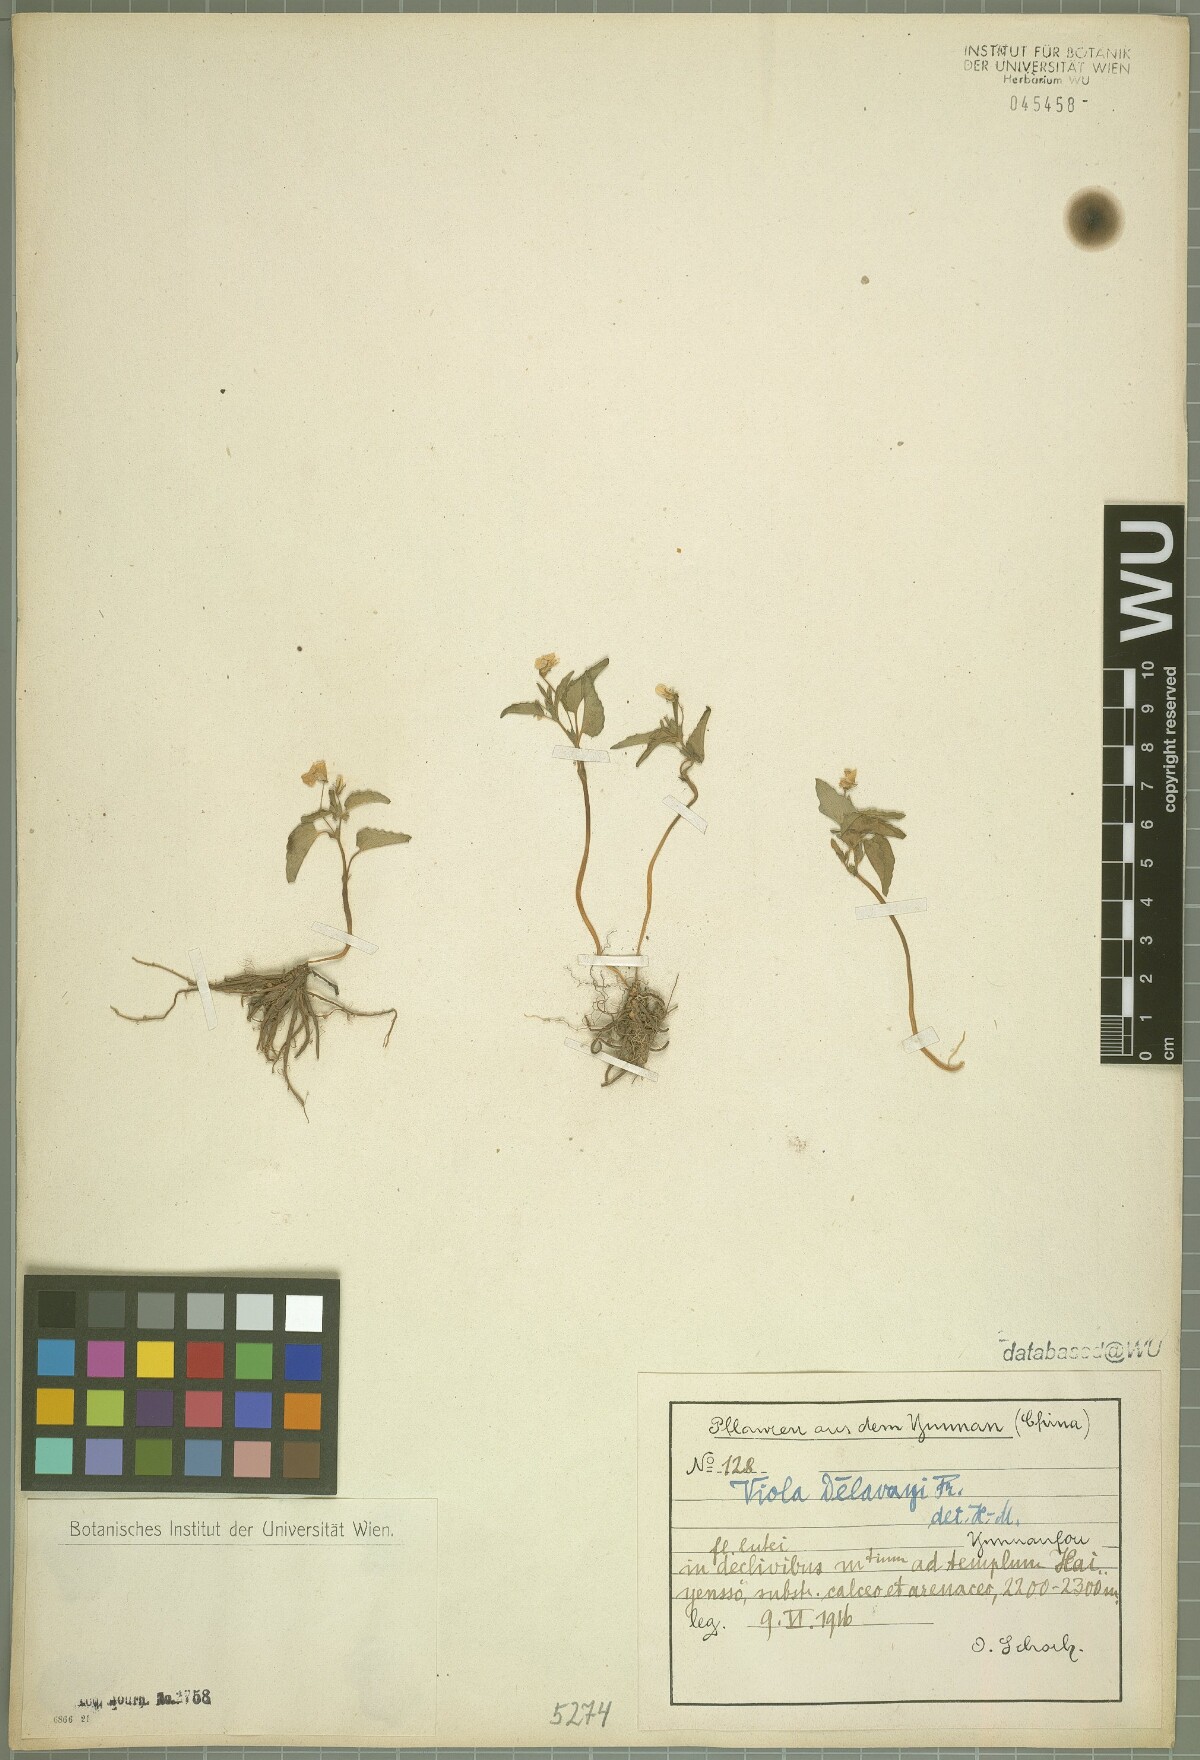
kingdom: Plantae
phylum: Tracheophyta
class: Magnoliopsida
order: Malpighiales
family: Violaceae
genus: Viola
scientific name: Viola delavayi
